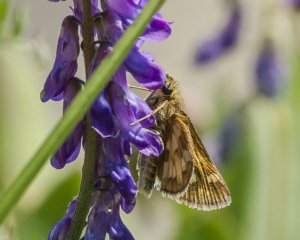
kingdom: Animalia
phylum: Arthropoda
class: Insecta
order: Lepidoptera
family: Hesperiidae
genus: Polites
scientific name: Polites coras
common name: Peck's Skipper
